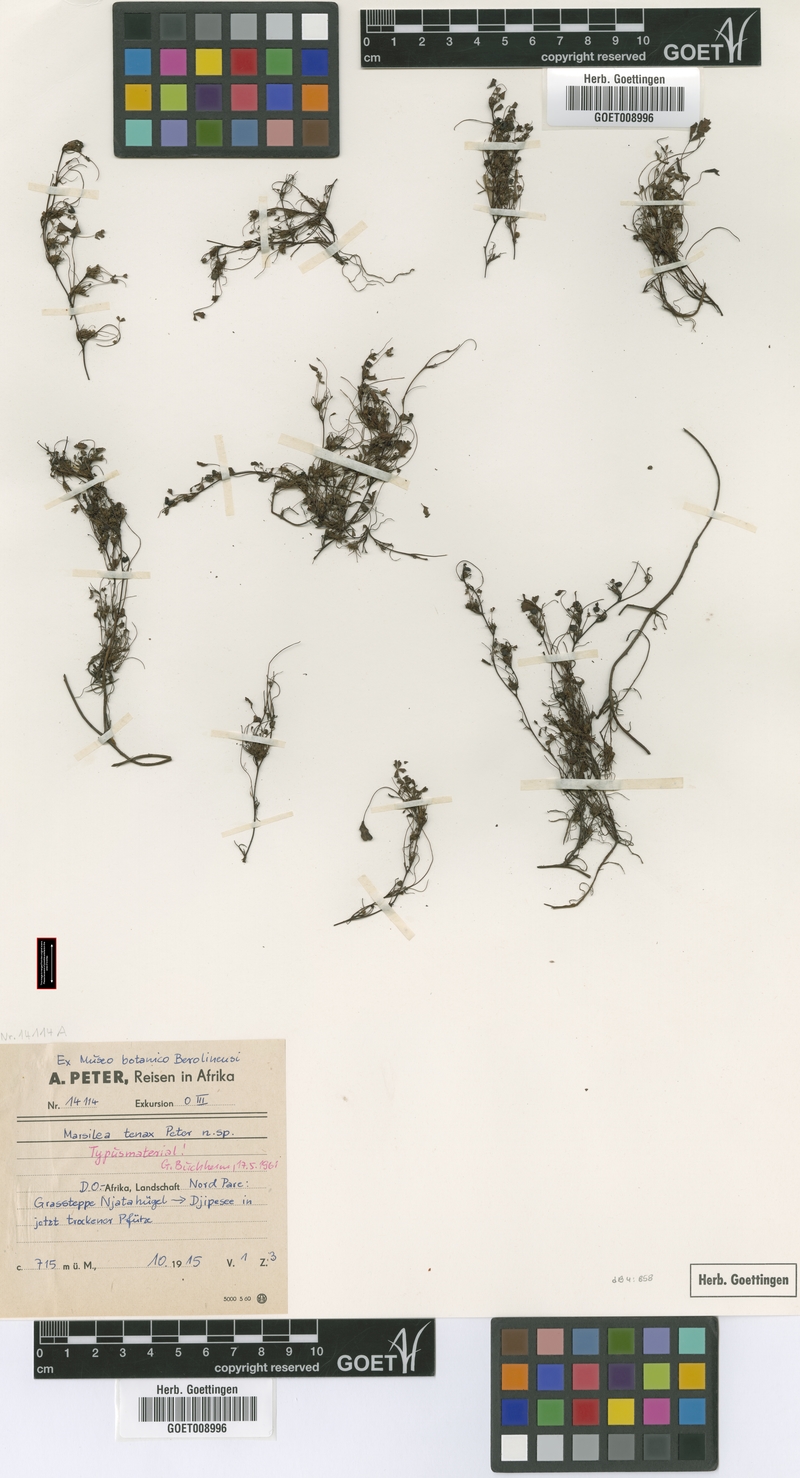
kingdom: Plantae
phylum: Tracheophyta
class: Polypodiopsida
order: Salviniales
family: Marsileaceae
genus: Marsilea
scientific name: Marsilea minuta
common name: Dwarf waterclover
